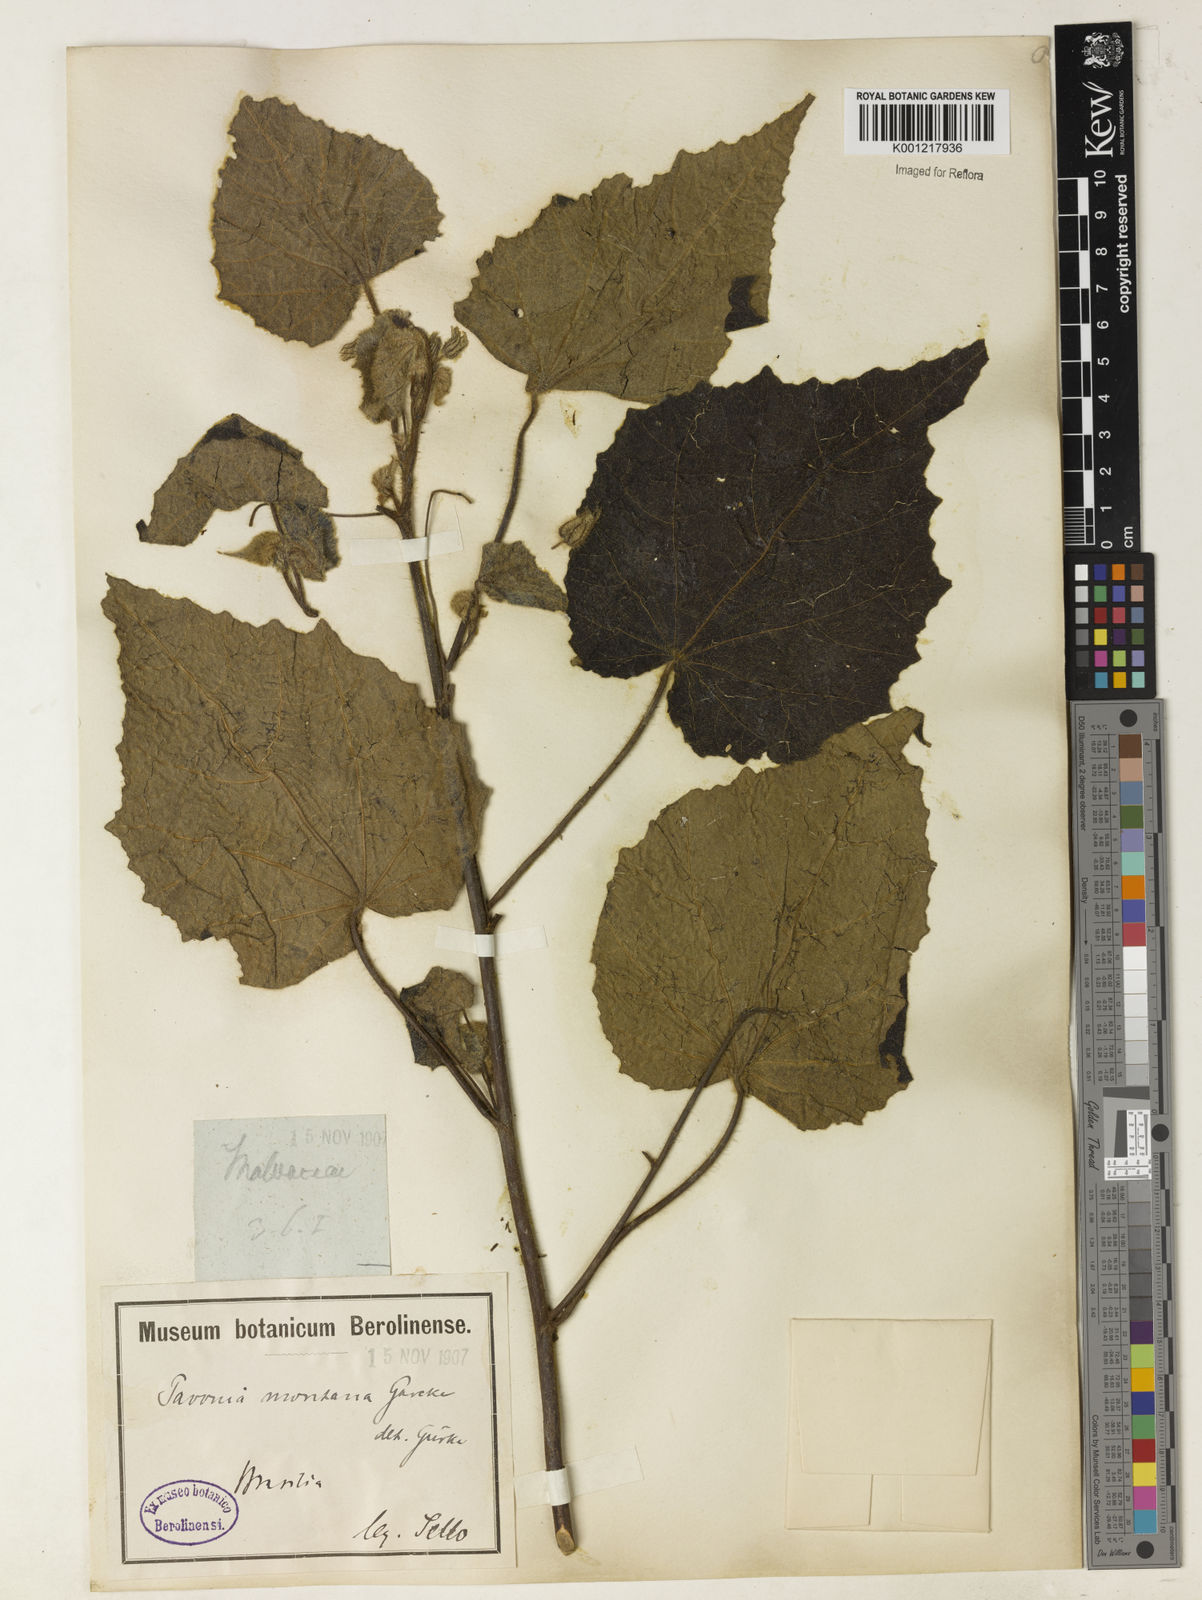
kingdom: Plantae
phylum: Tracheophyta
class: Magnoliopsida
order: Malvales
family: Malvaceae
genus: Pavonia
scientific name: Pavonia
